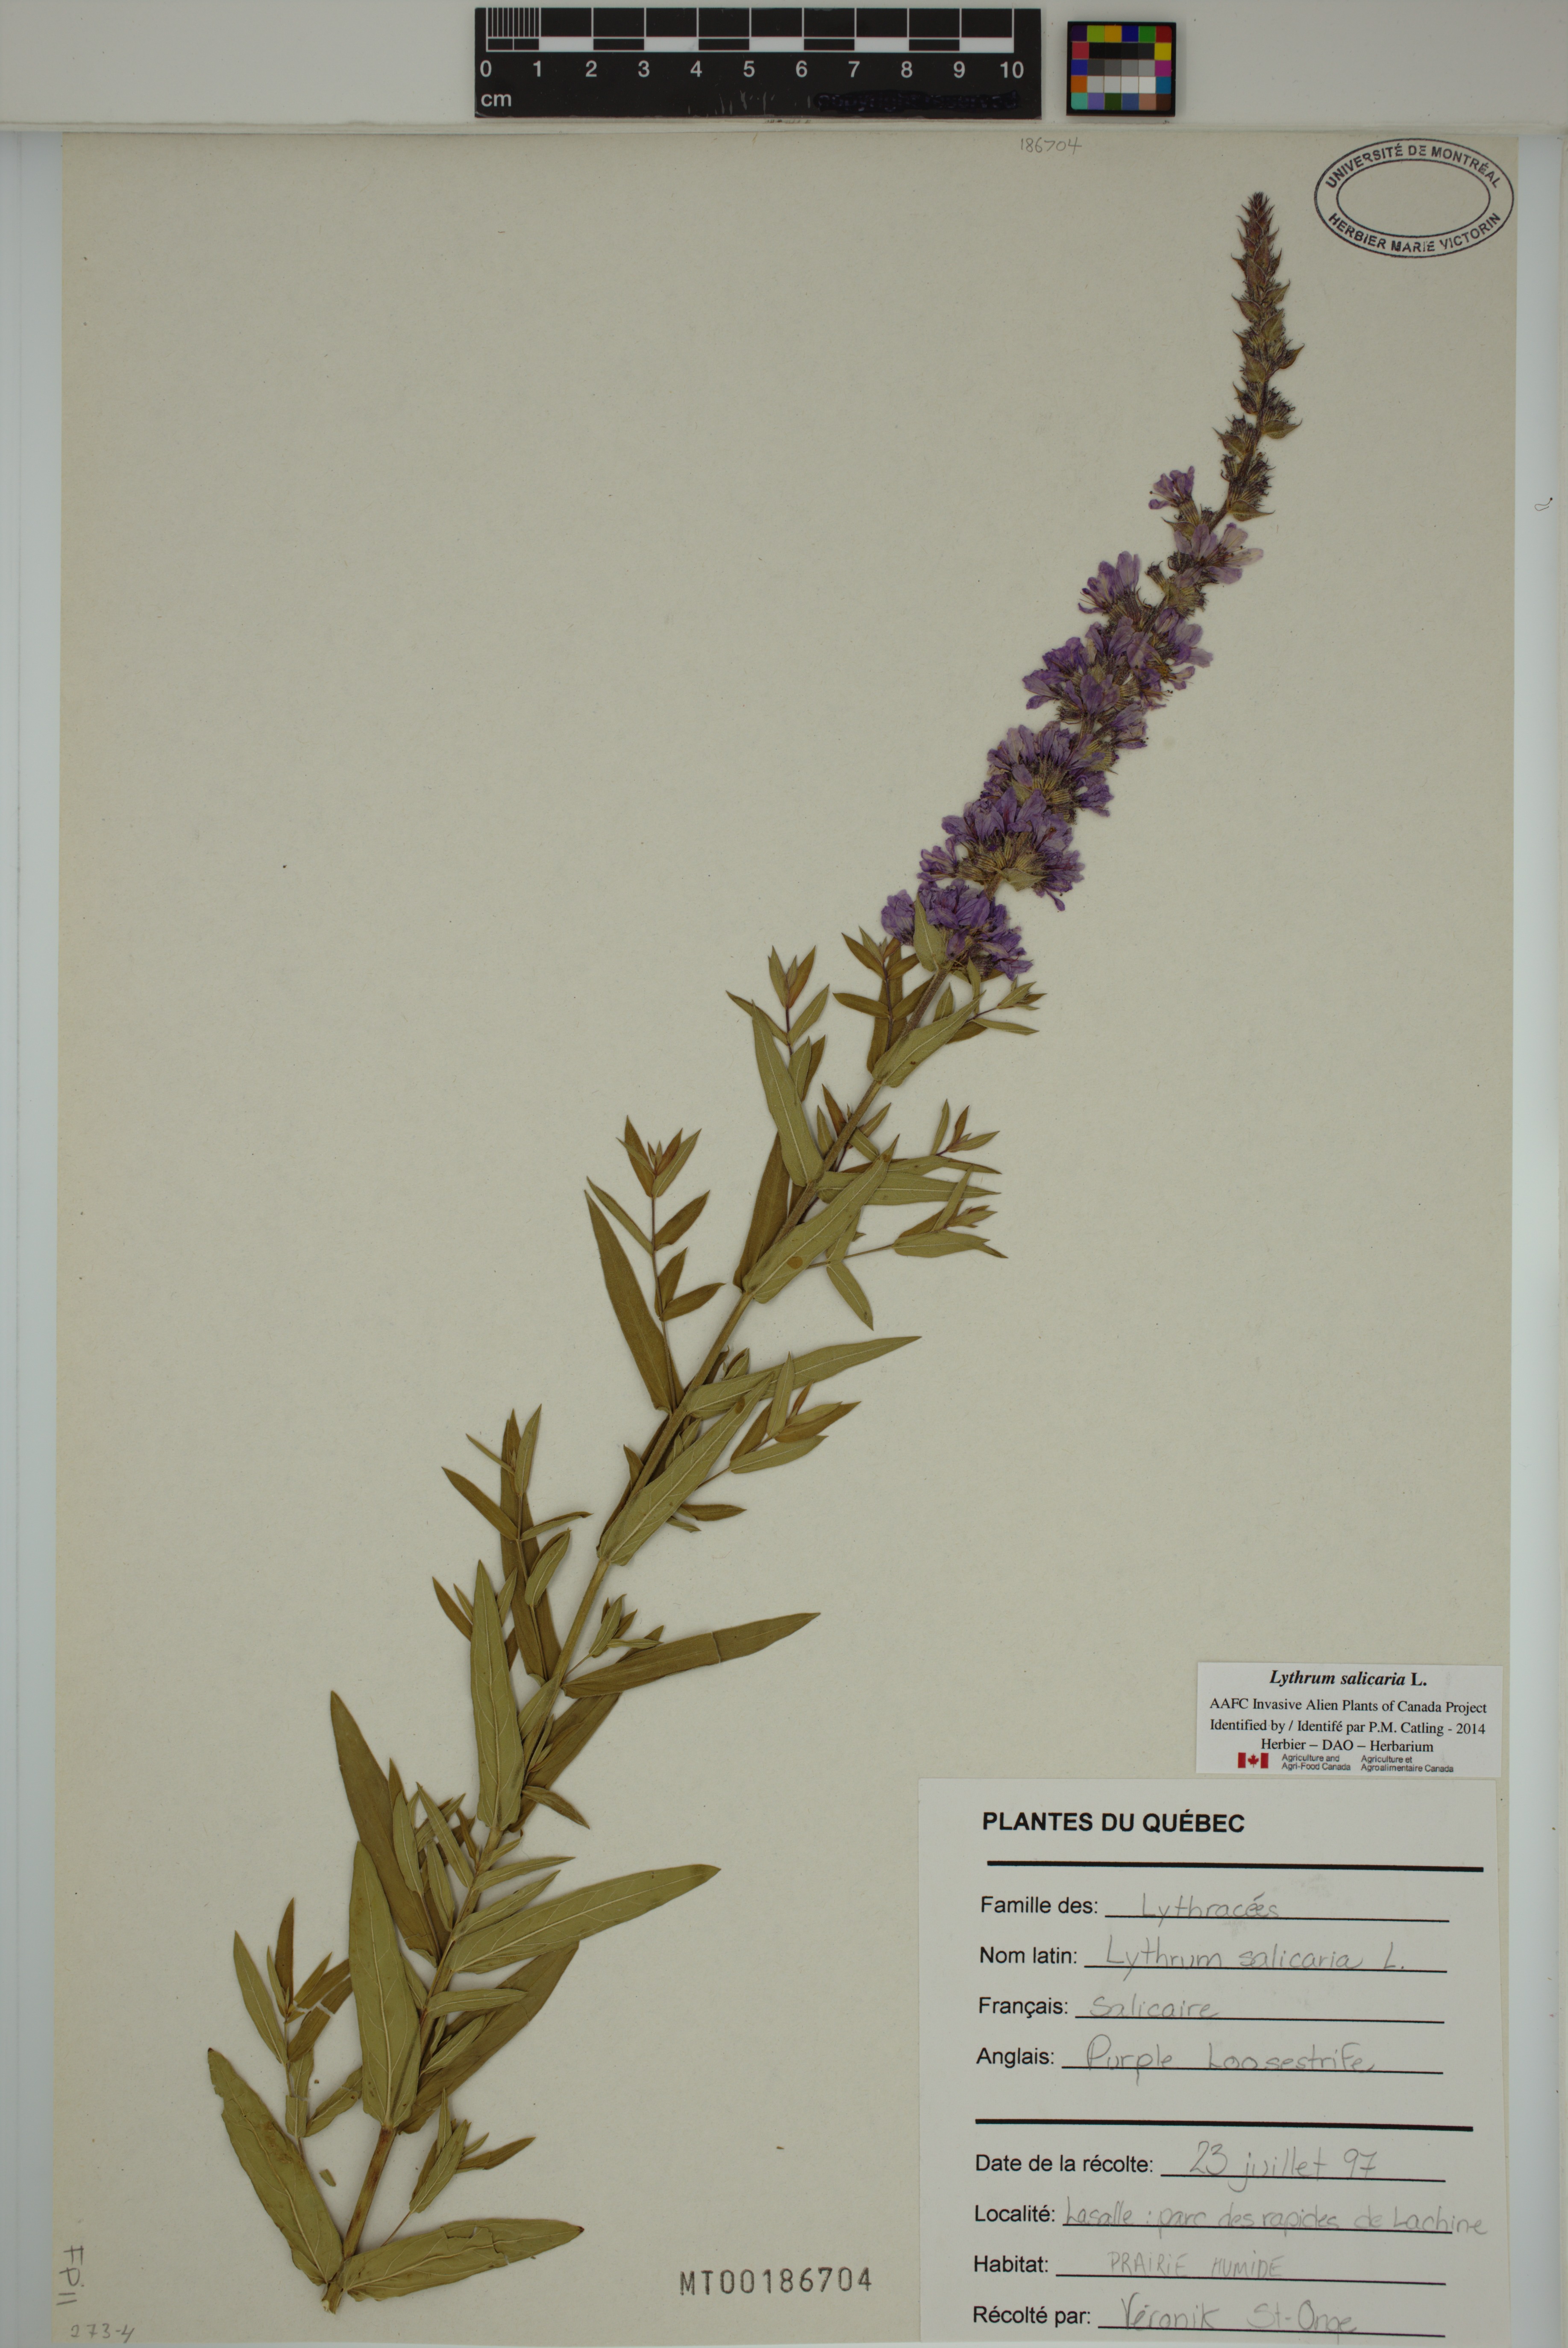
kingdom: Plantae
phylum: Tracheophyta
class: Magnoliopsida
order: Myrtales
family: Lythraceae
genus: Lythrum
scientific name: Lythrum salicaria
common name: Purple loosestrife
